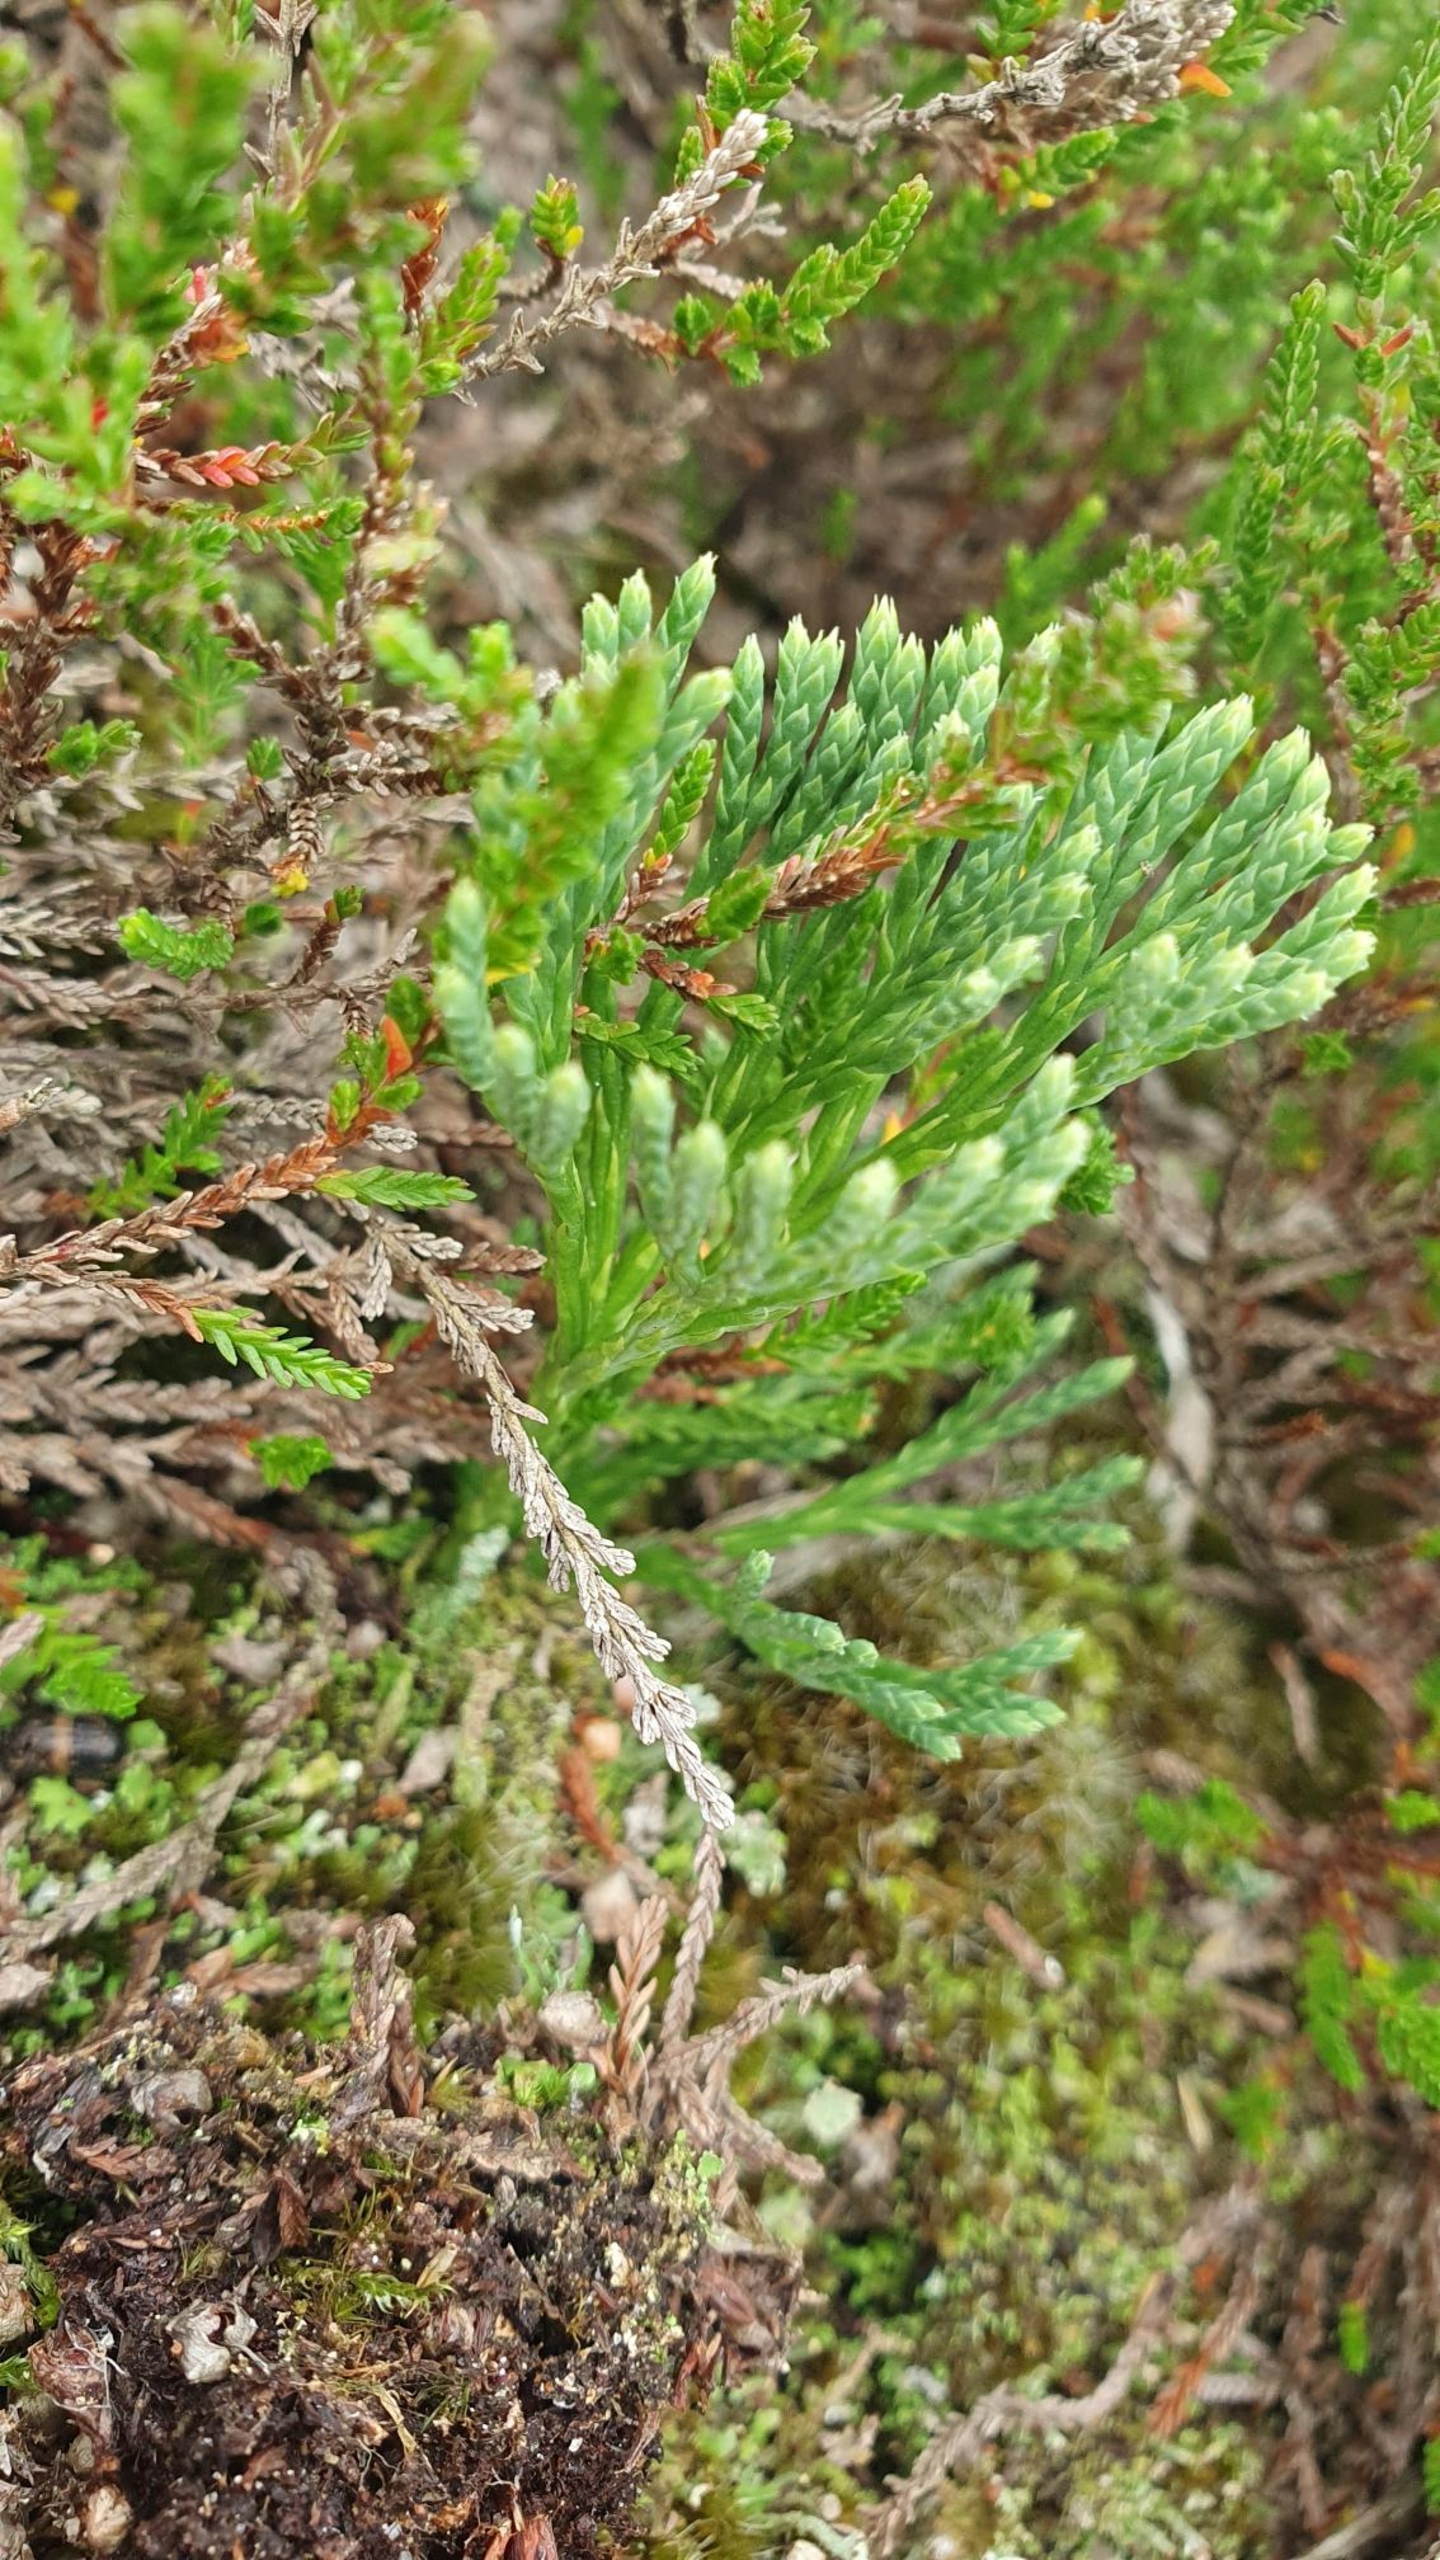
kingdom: Plantae
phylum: Tracheophyta
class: Lycopodiopsida
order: Lycopodiales
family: Lycopodiaceae
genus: Diphasiastrum
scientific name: Diphasiastrum tristachyum
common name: Cypres-ulvefod
